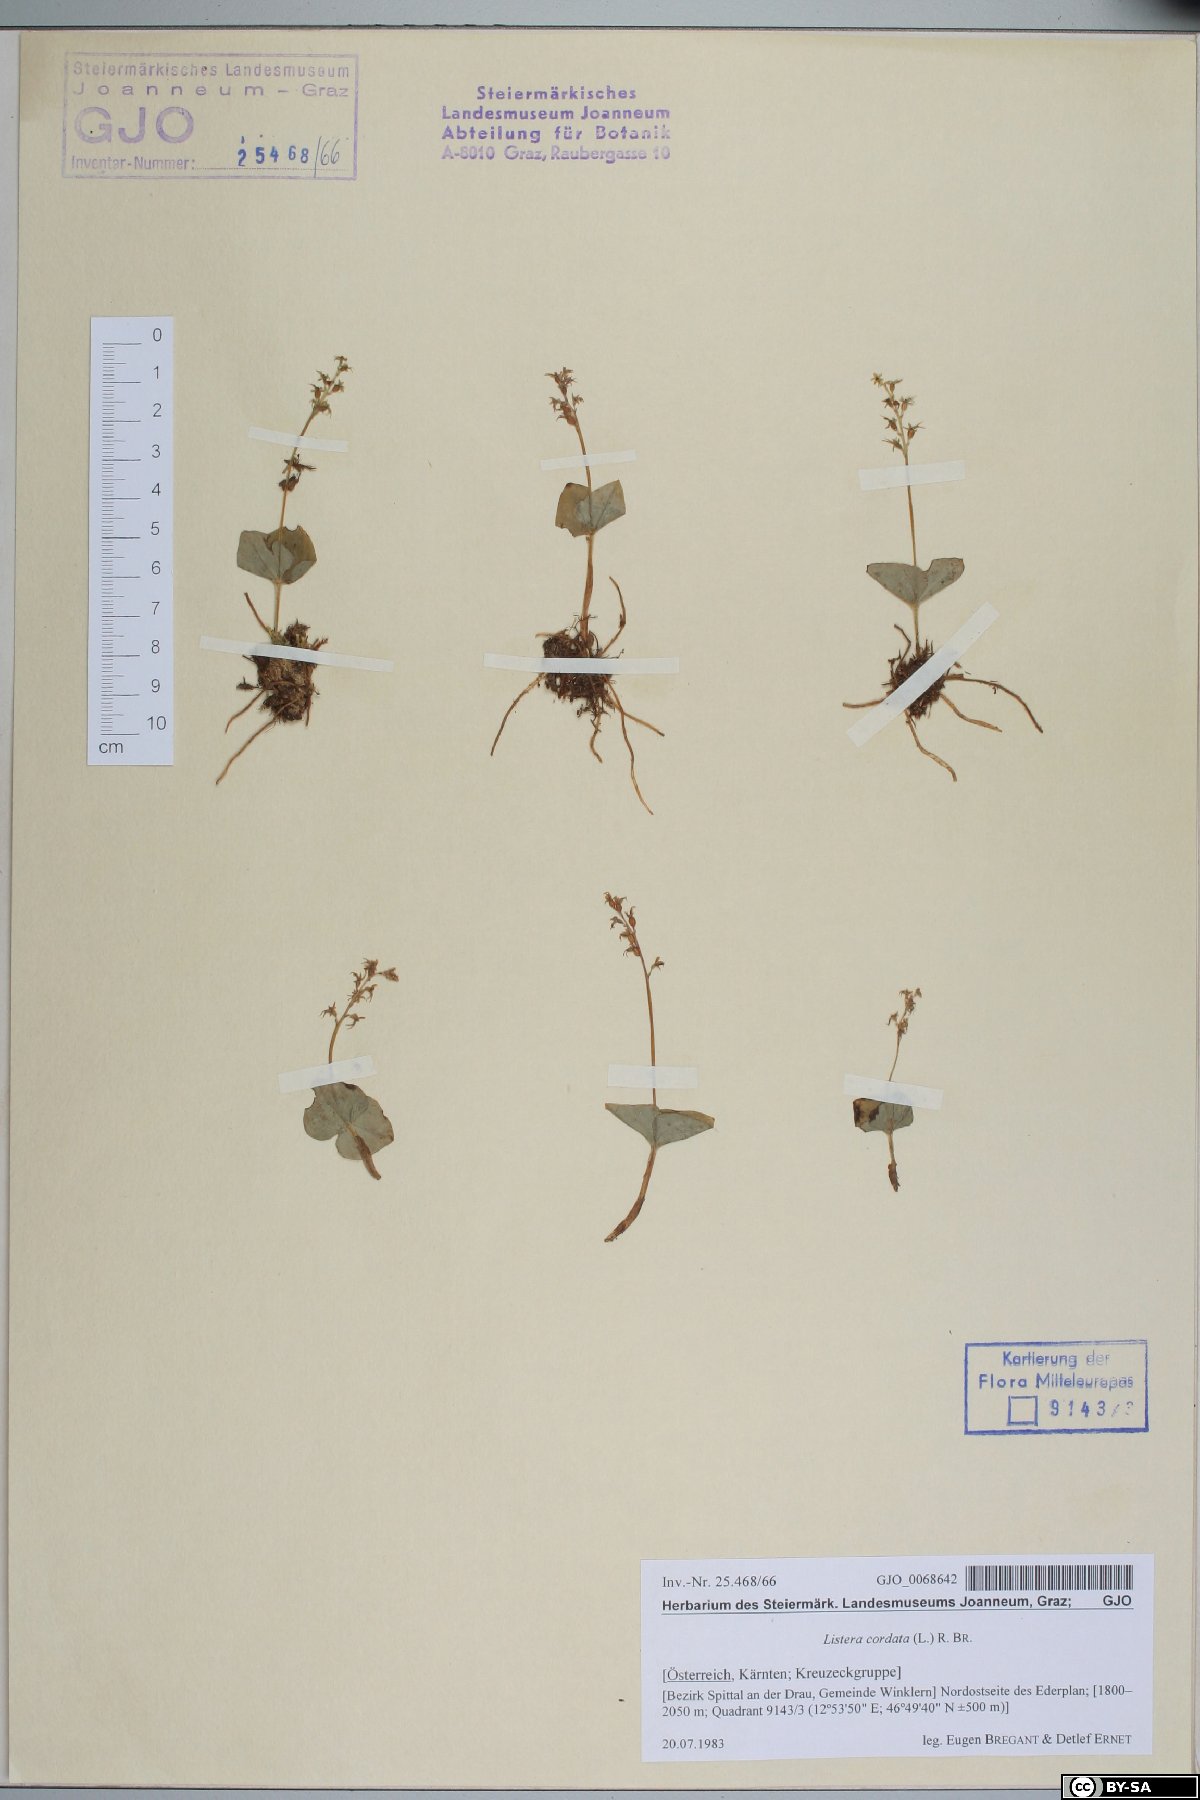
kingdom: Plantae
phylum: Tracheophyta
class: Liliopsida
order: Asparagales
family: Orchidaceae
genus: Neottia
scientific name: Neottia cordata
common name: Lesser twayblade
